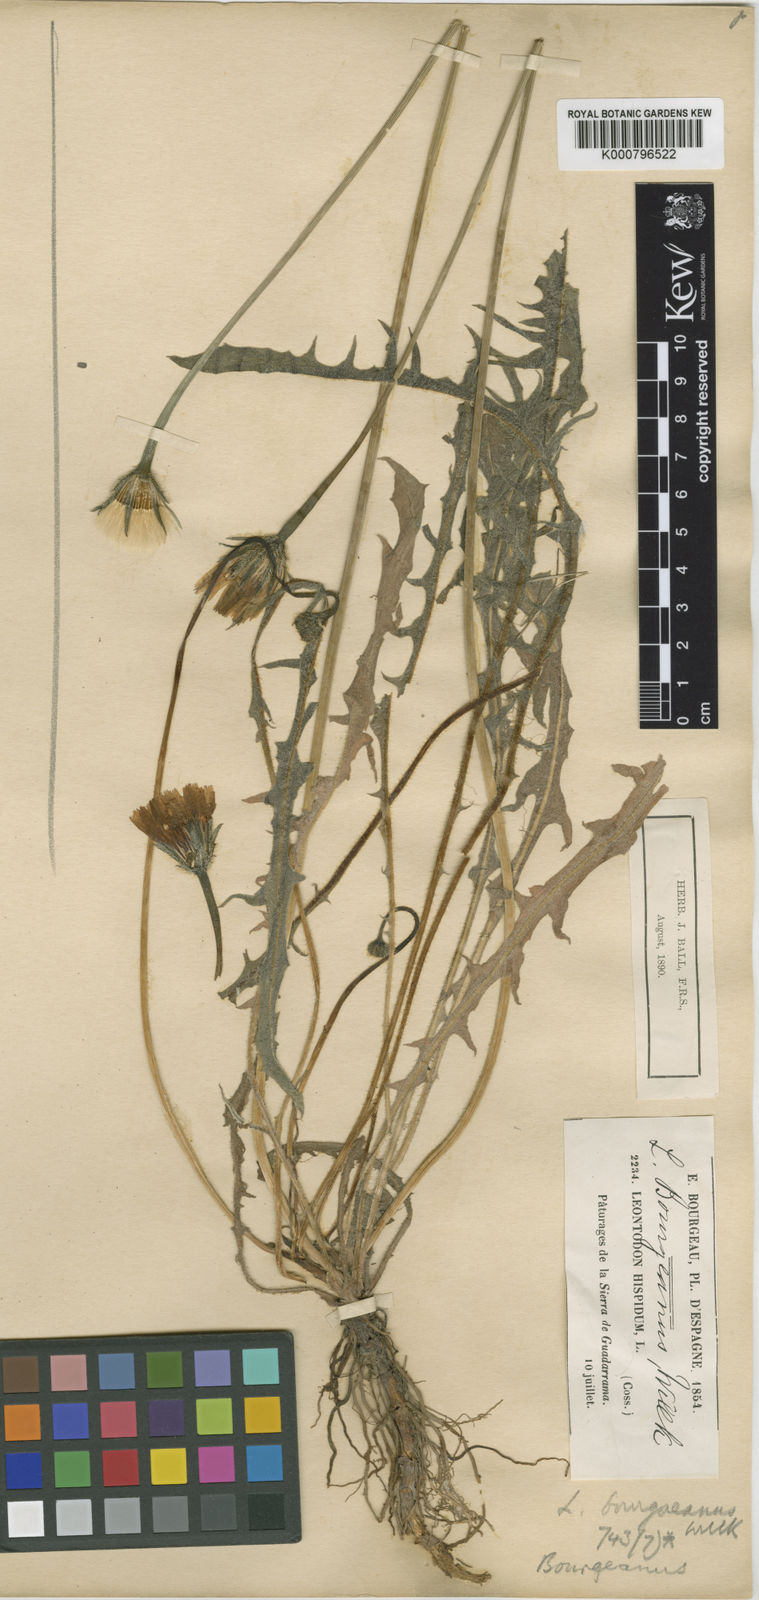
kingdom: Plantae
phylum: Tracheophyta
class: Magnoliopsida
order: Asterales
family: Asteraceae
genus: Leontodon
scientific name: Leontodon hispidus
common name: Rough hawkbit
